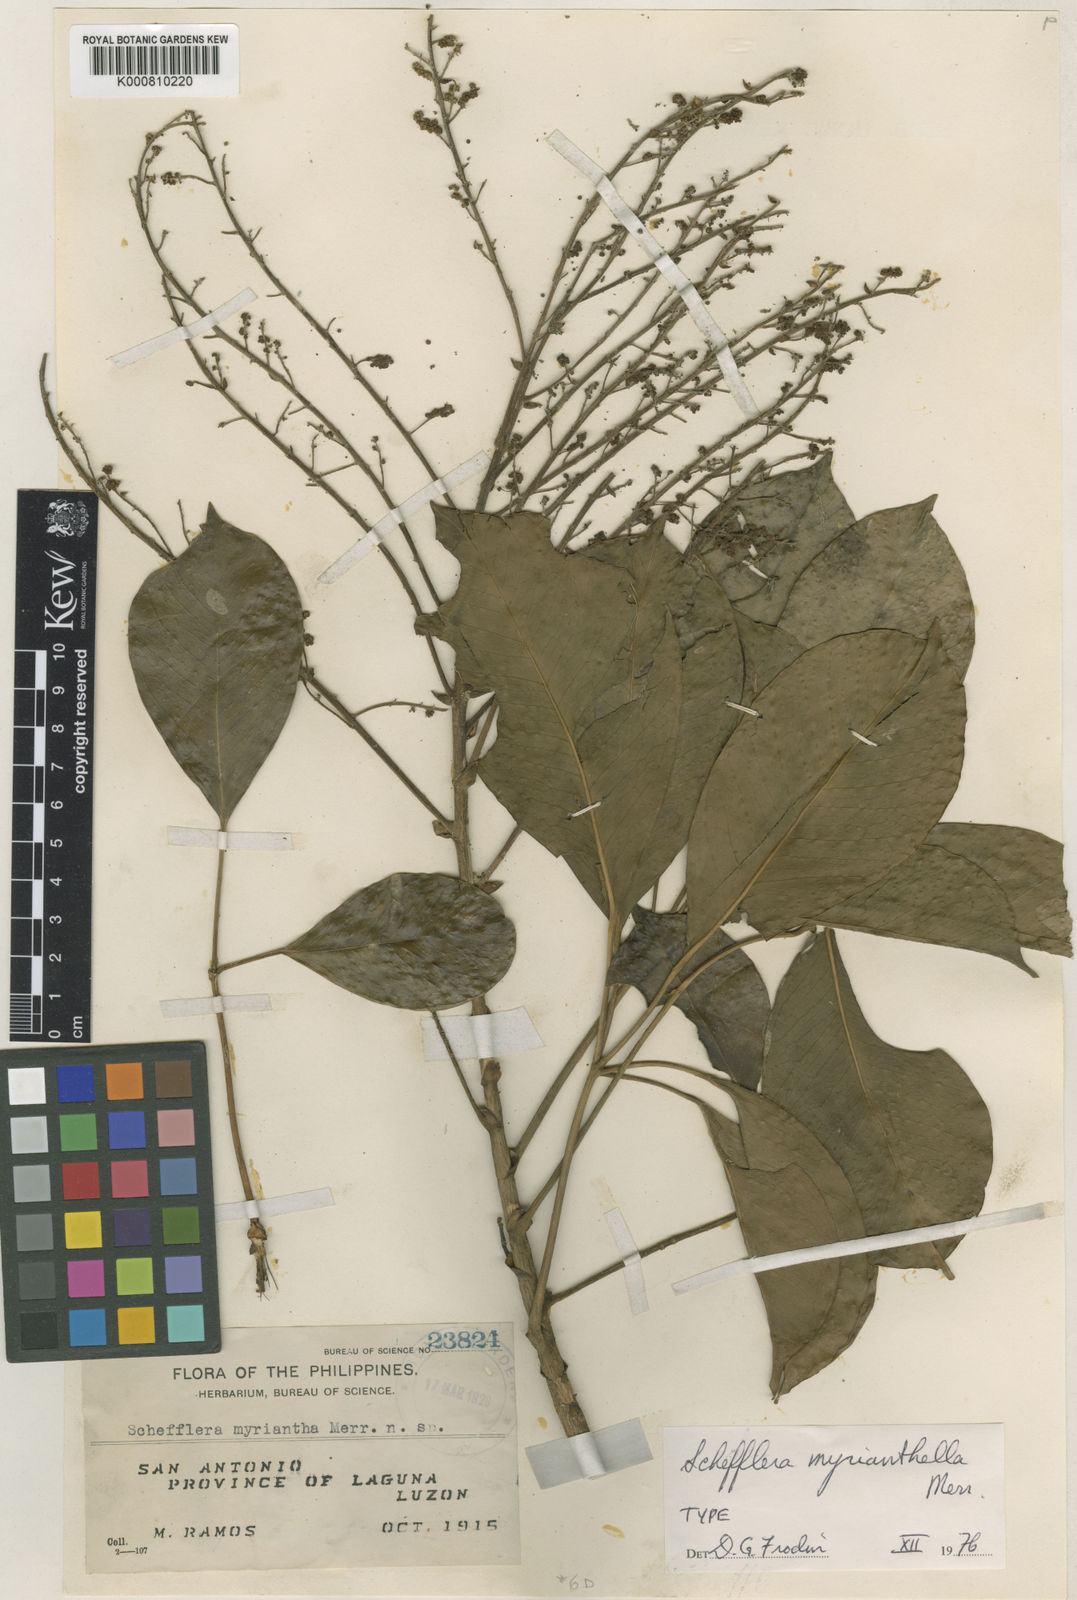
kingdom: Plantae
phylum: Tracheophyta
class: Magnoliopsida
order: Apiales
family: Araliaceae
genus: Heptapleurum
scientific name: Heptapleurum myrianthellum
